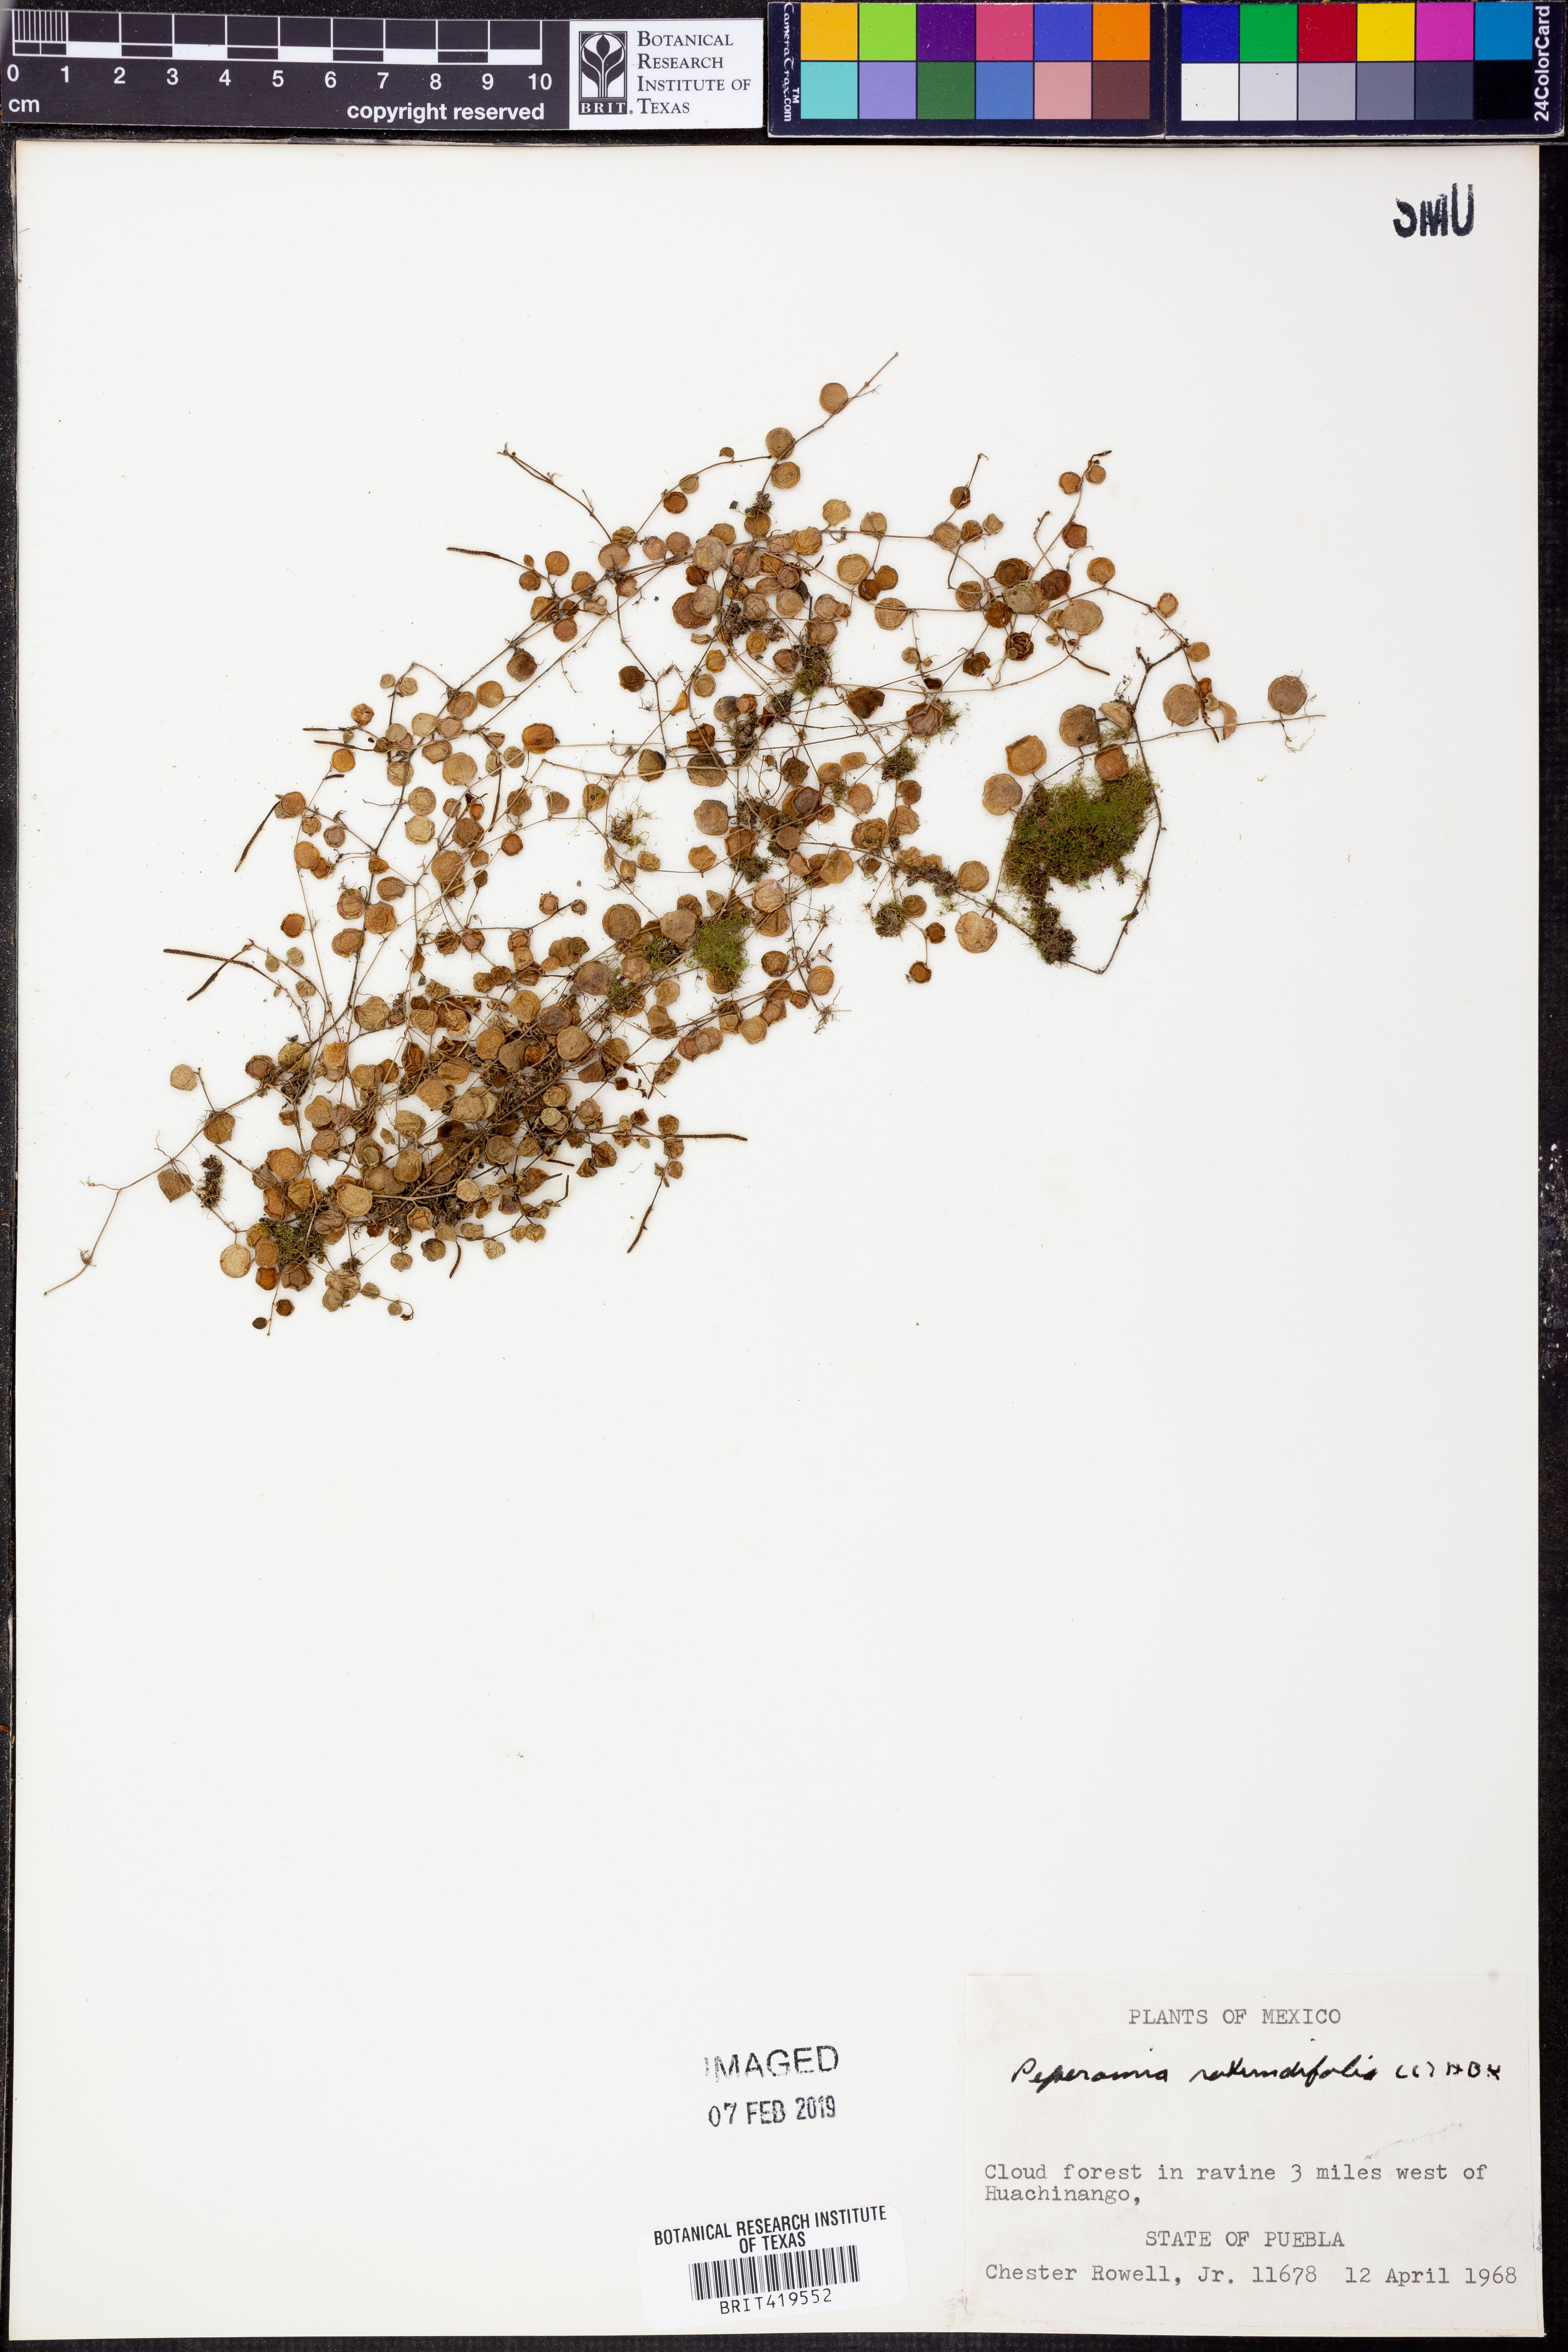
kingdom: Plantae
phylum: Tracheophyta
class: Magnoliopsida
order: Piperales
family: Piperaceae
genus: Peperomia
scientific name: Peperomia rotundifolia
